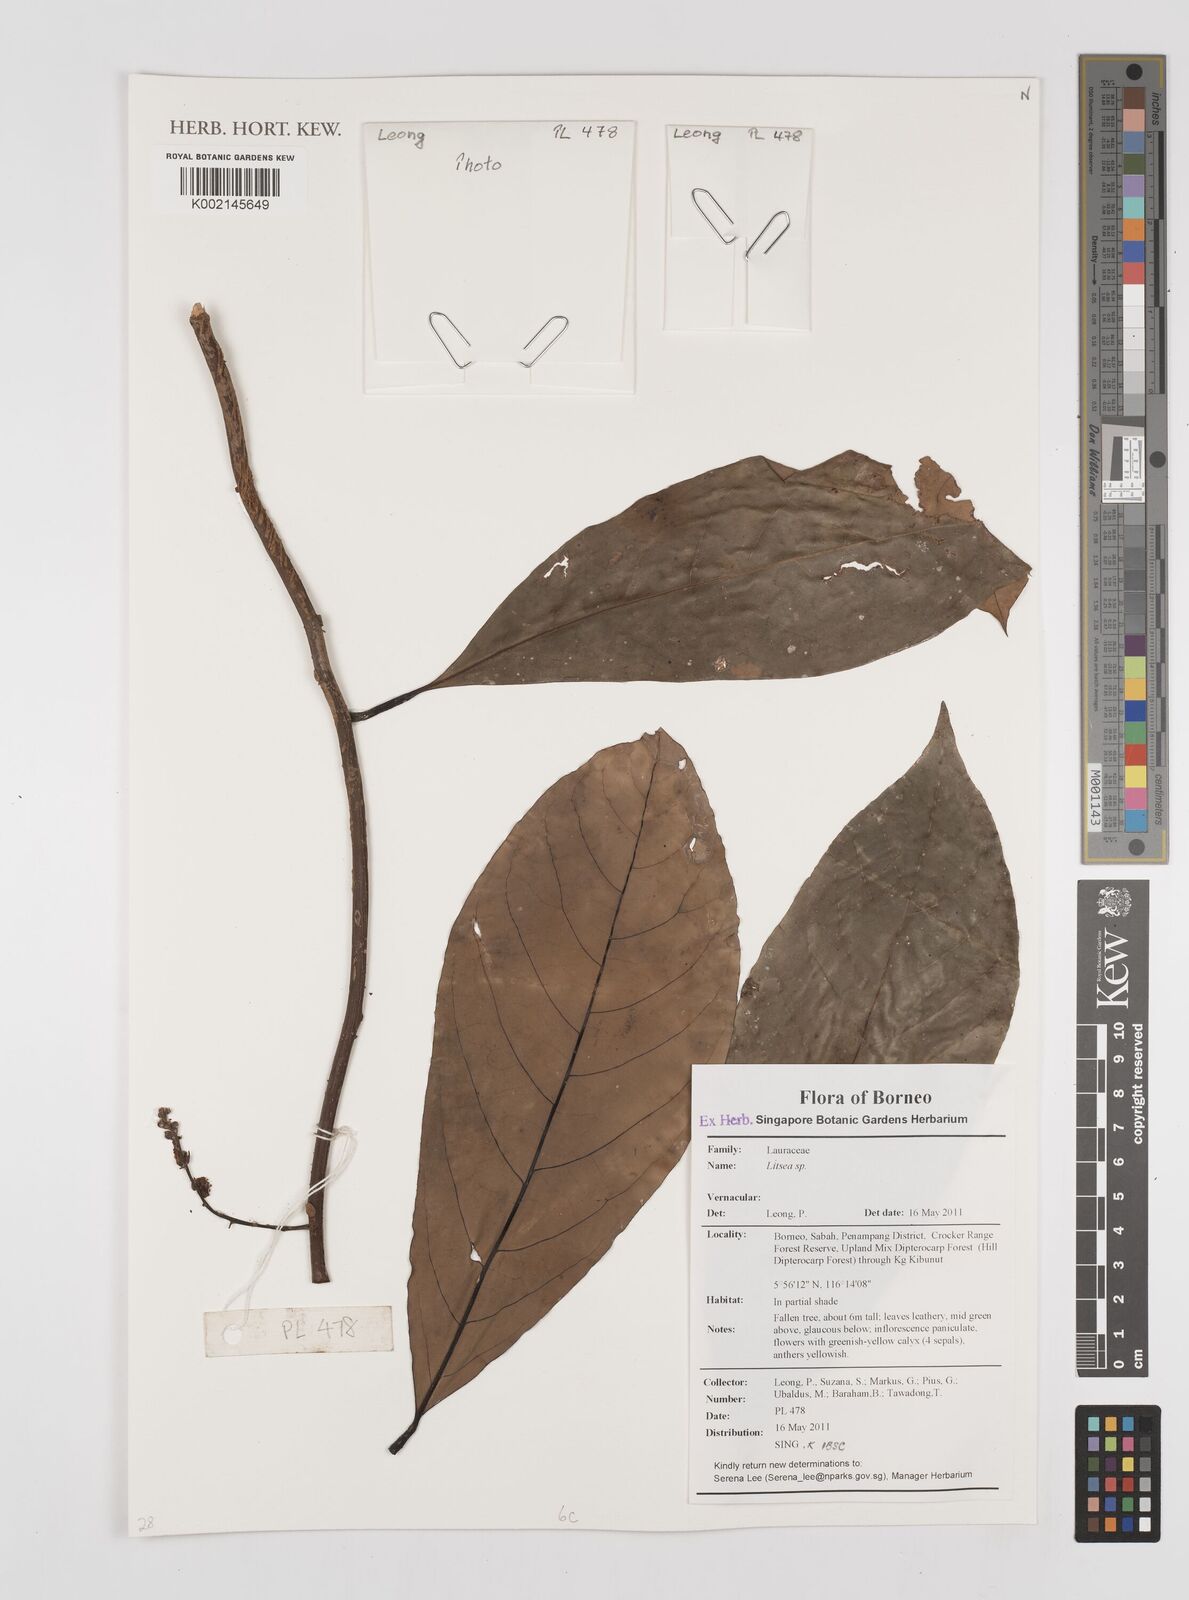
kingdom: Plantae
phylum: Tracheophyta
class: Magnoliopsida
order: Laurales
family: Lauraceae
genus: Litsea
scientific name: Litsea
